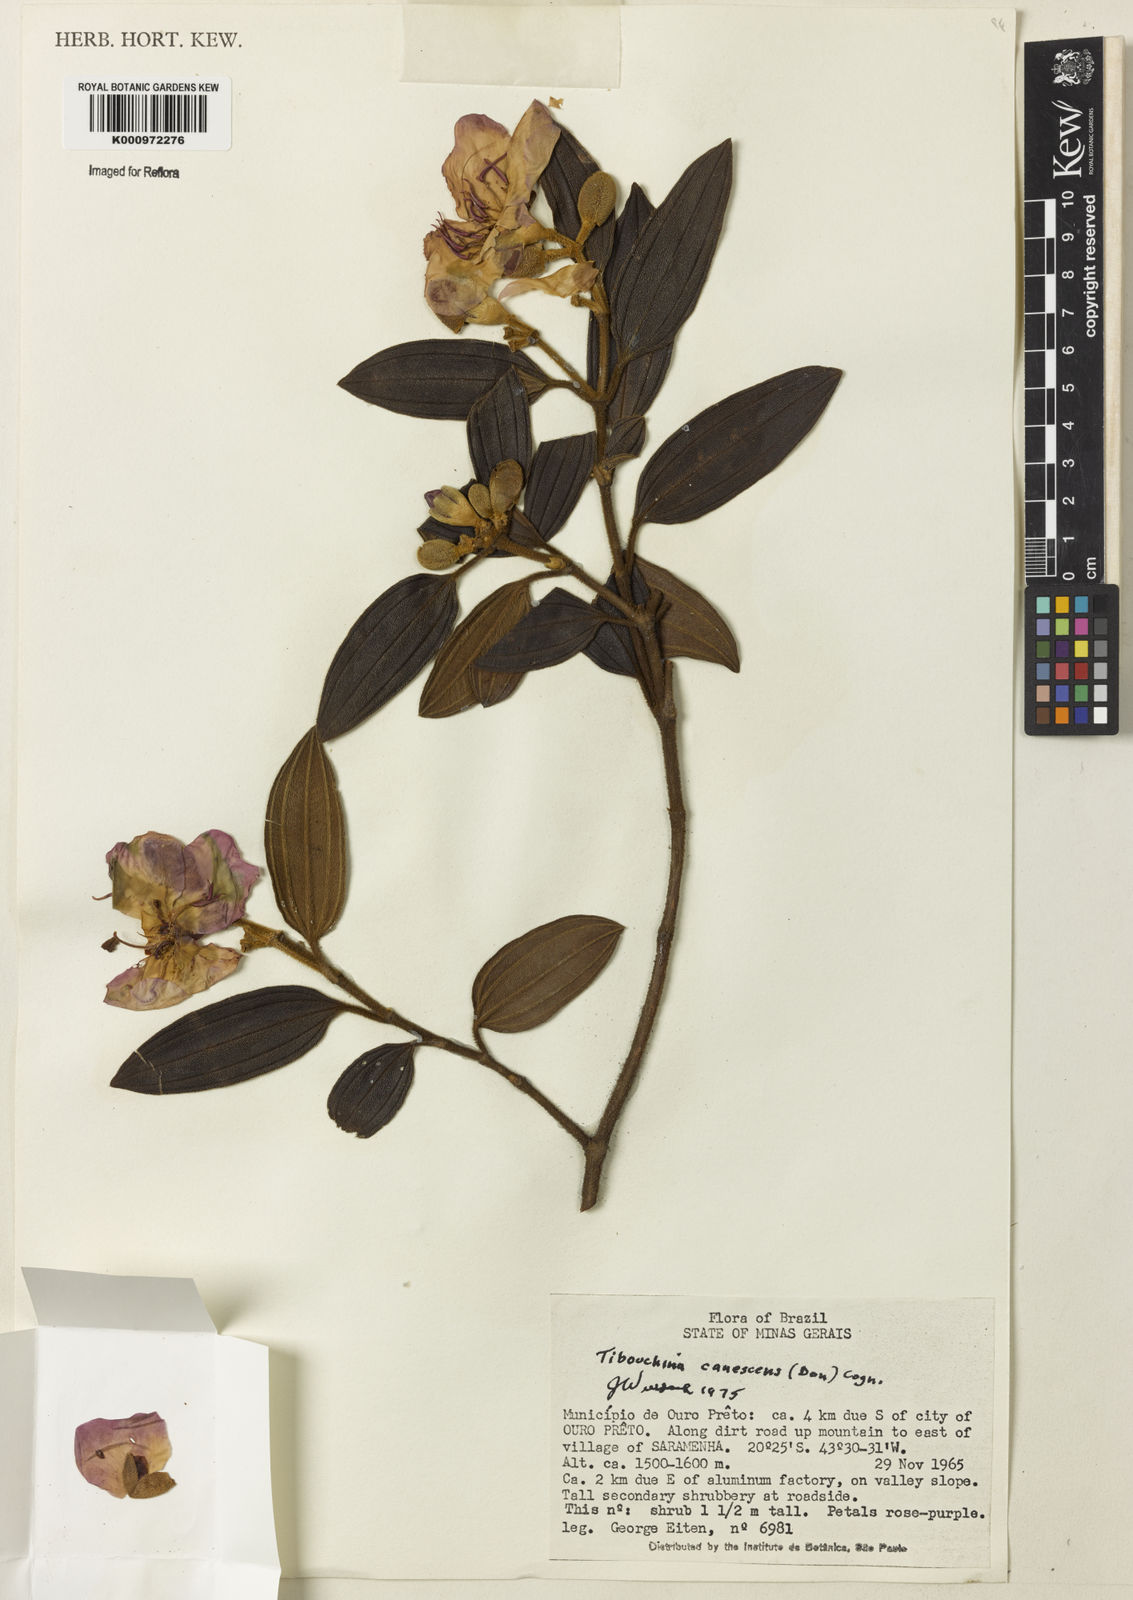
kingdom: Plantae
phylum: Tracheophyta
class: Magnoliopsida
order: Myrtales
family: Melastomataceae
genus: Pleroma
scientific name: Pleroma canescens
